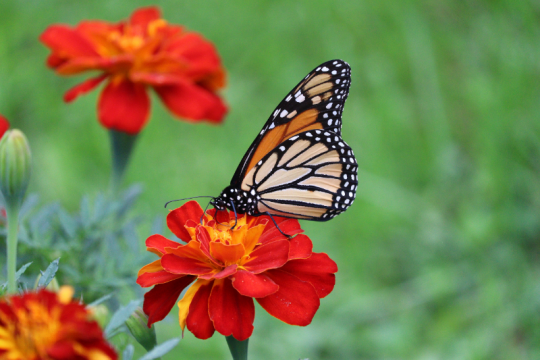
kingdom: Animalia
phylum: Arthropoda
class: Insecta
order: Lepidoptera
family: Nymphalidae
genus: Danaus
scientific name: Danaus plexippus
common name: Monarch
